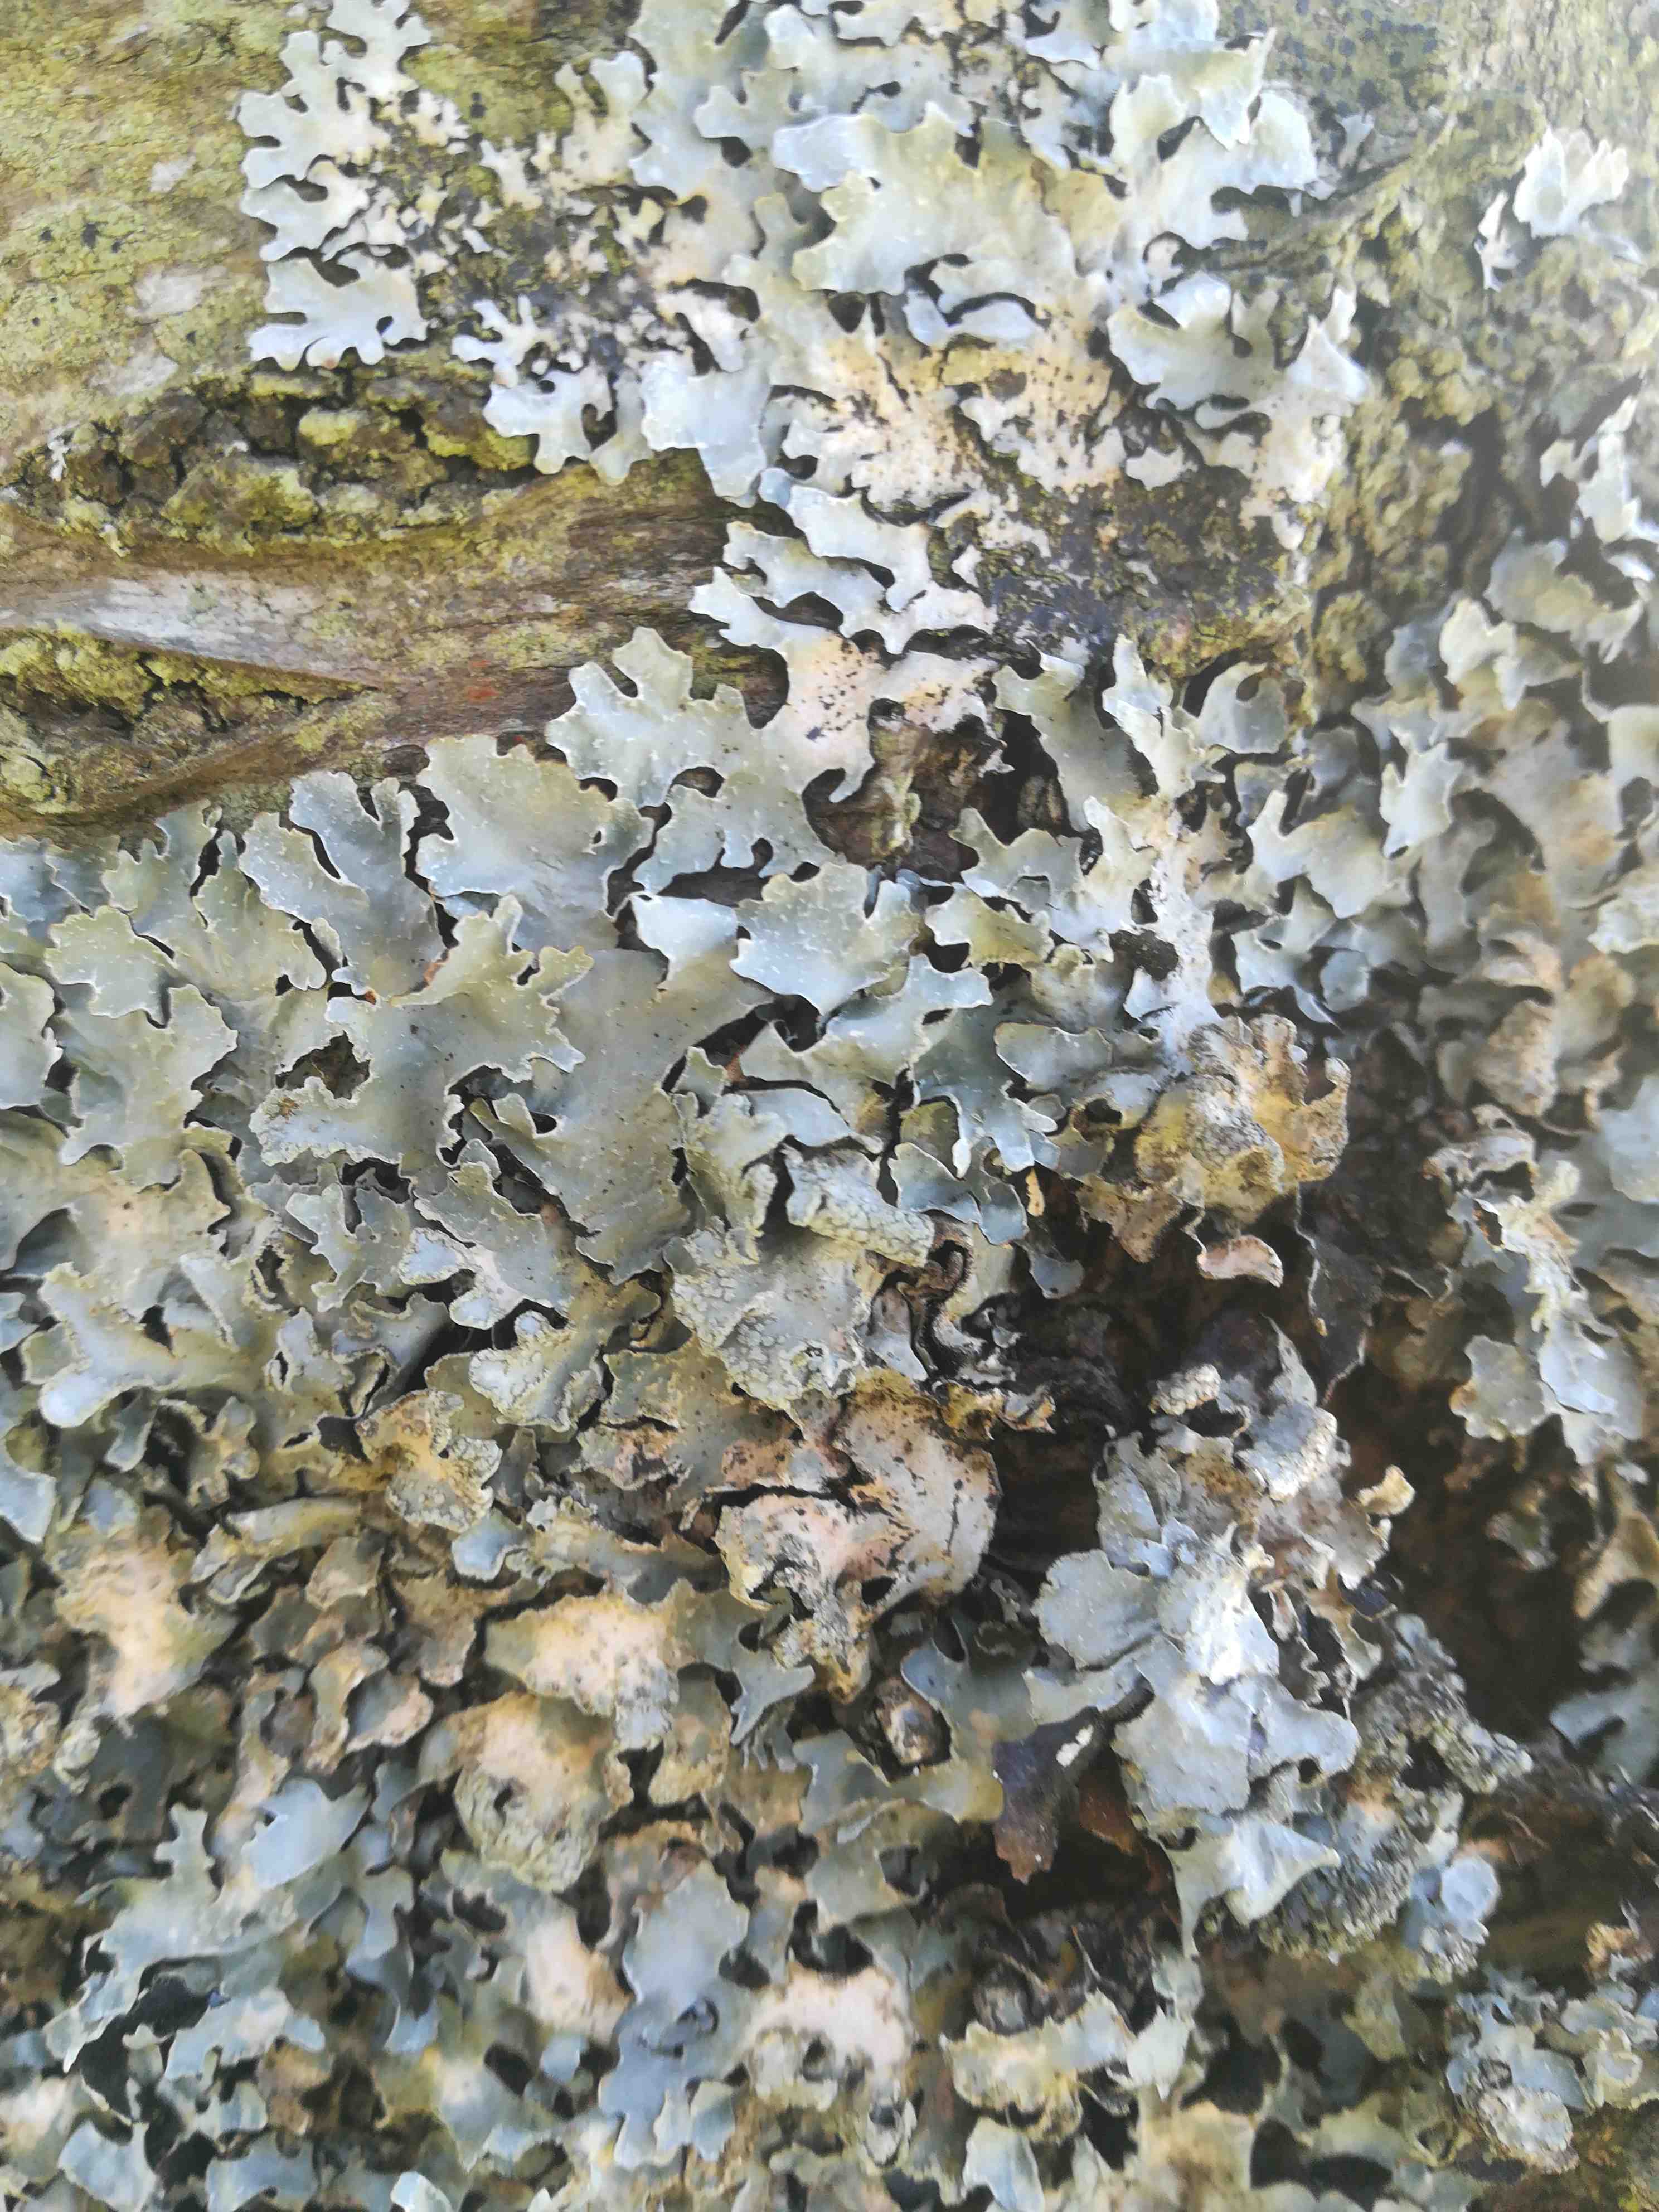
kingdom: Fungi
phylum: Ascomycota
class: Lecanoromycetes
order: Lecanorales
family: Parmeliaceae
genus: Parmelia
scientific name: Parmelia sulcata
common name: rynket skållav
